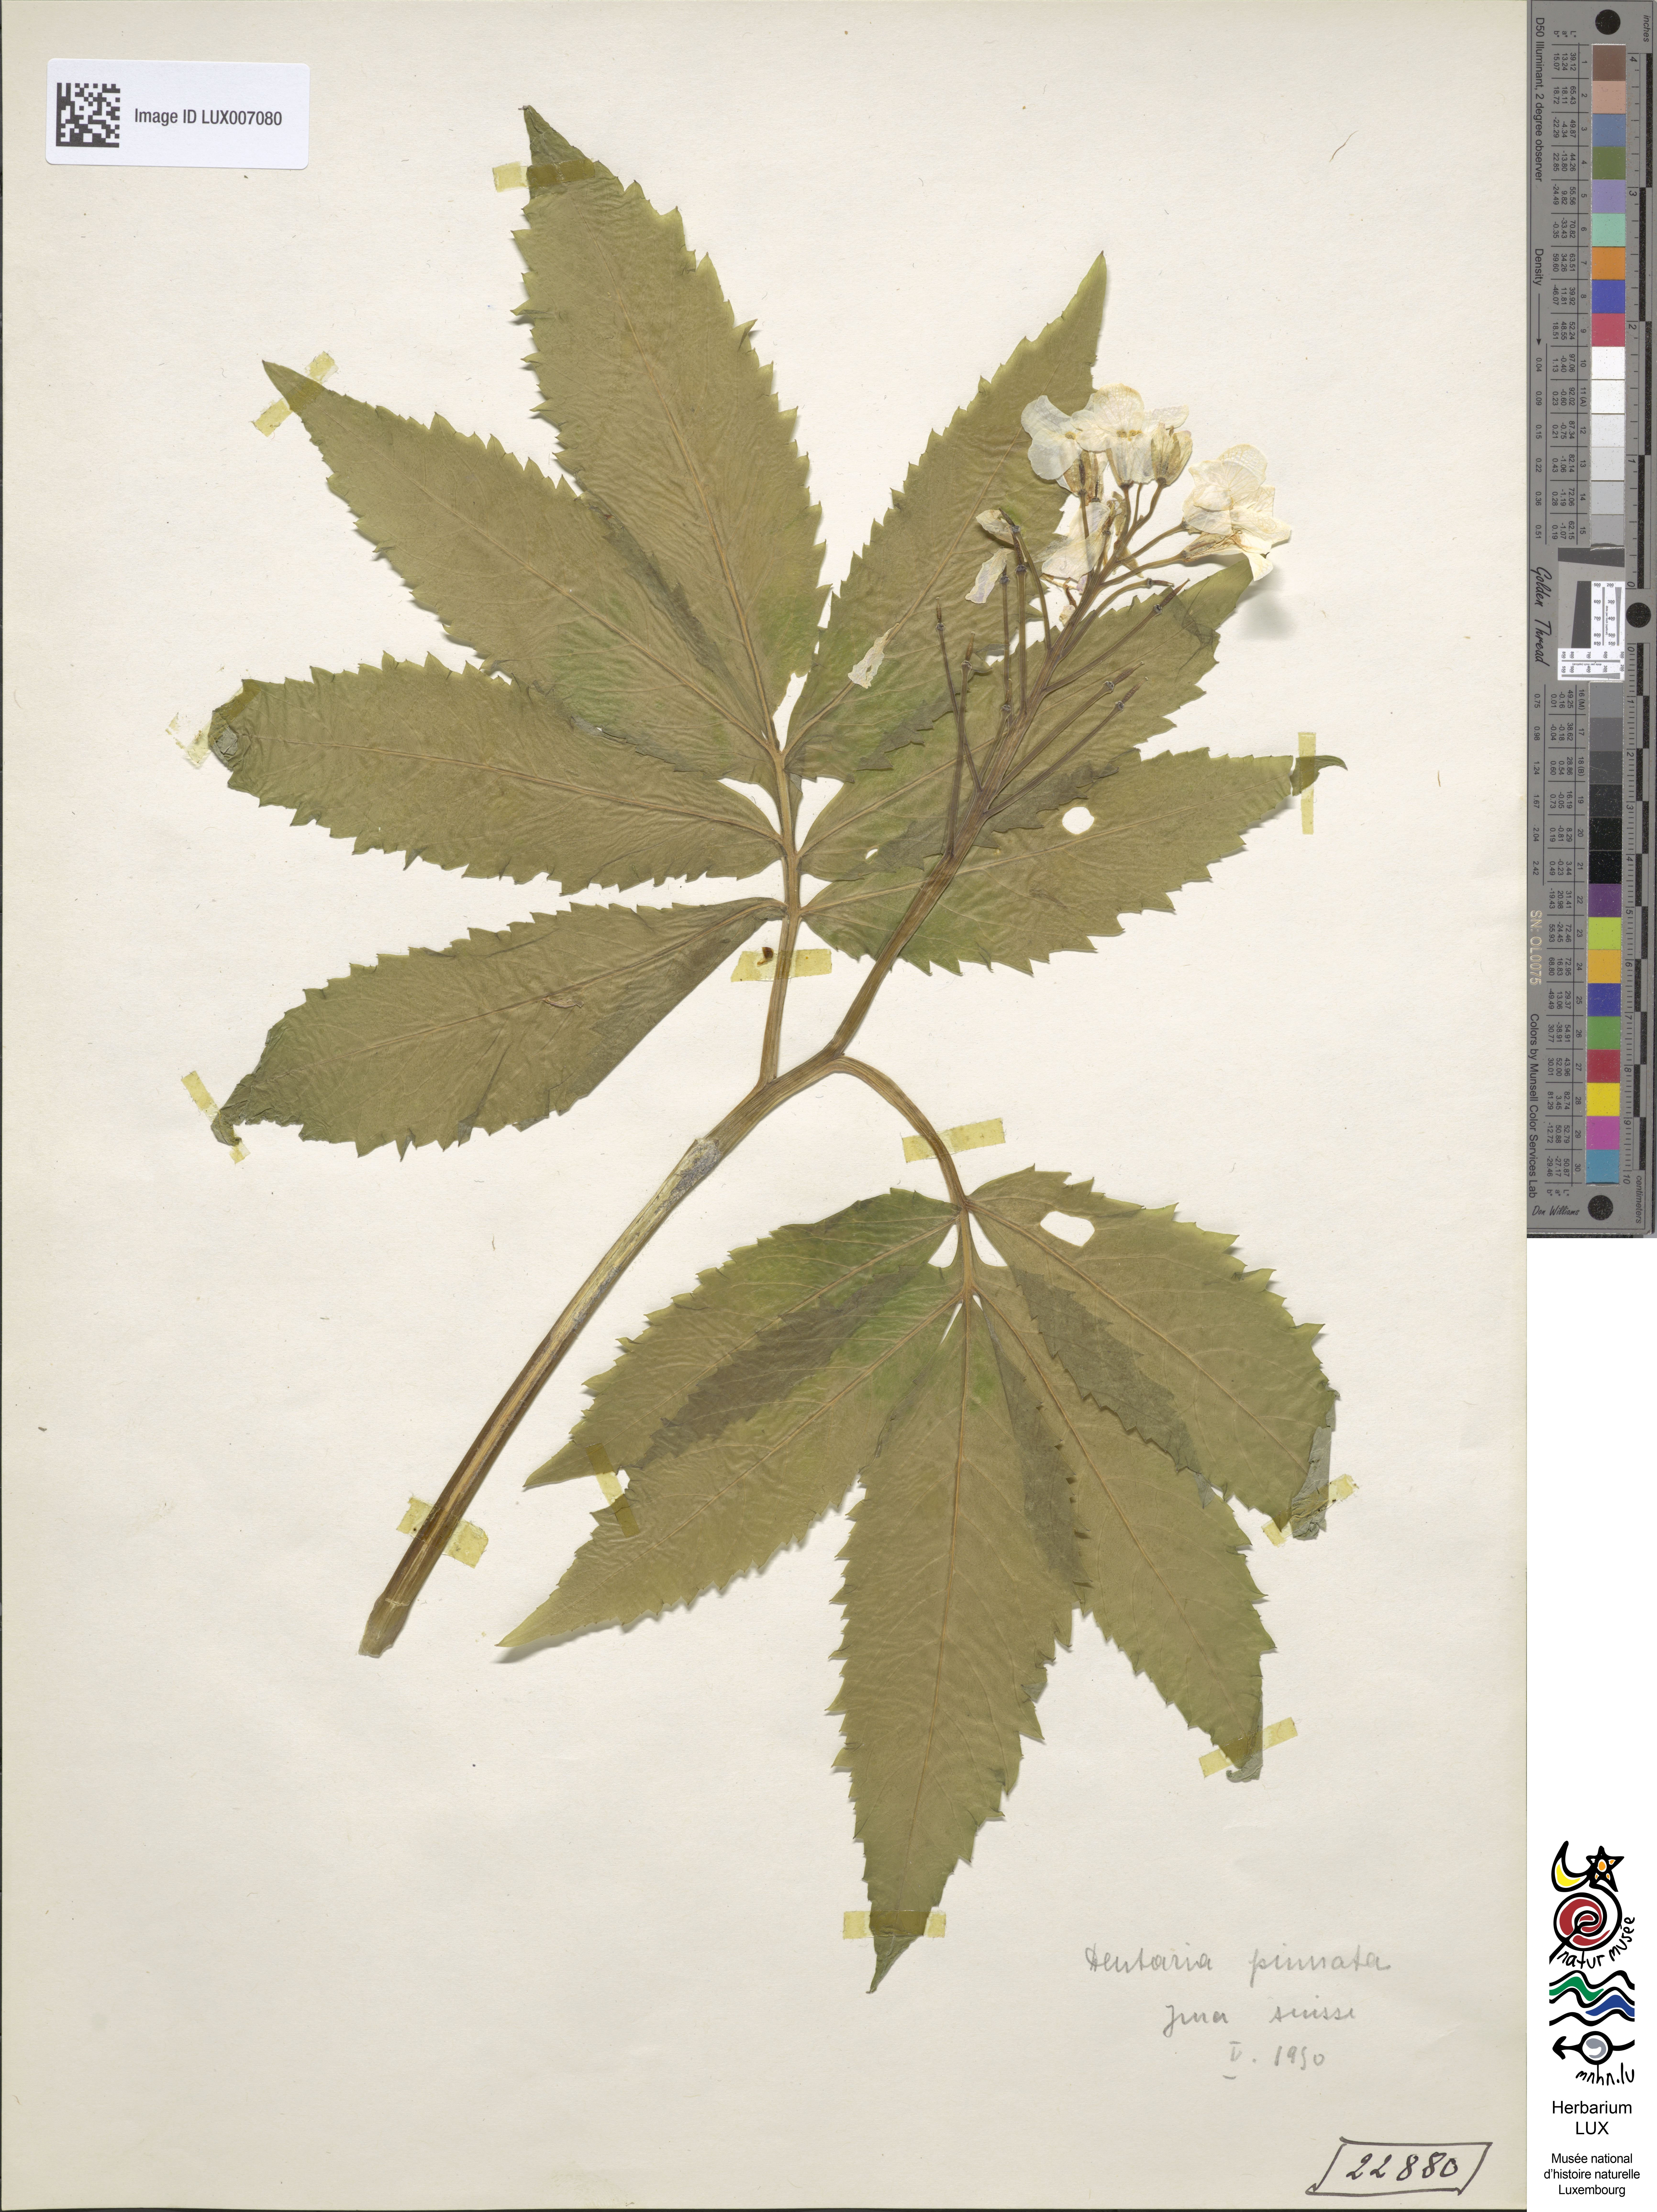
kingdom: Plantae
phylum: Tracheophyta
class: Magnoliopsida
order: Brassicales
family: Brassicaceae
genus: Cardamine
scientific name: Cardamine heptaphylla
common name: Pinnate coralroot
